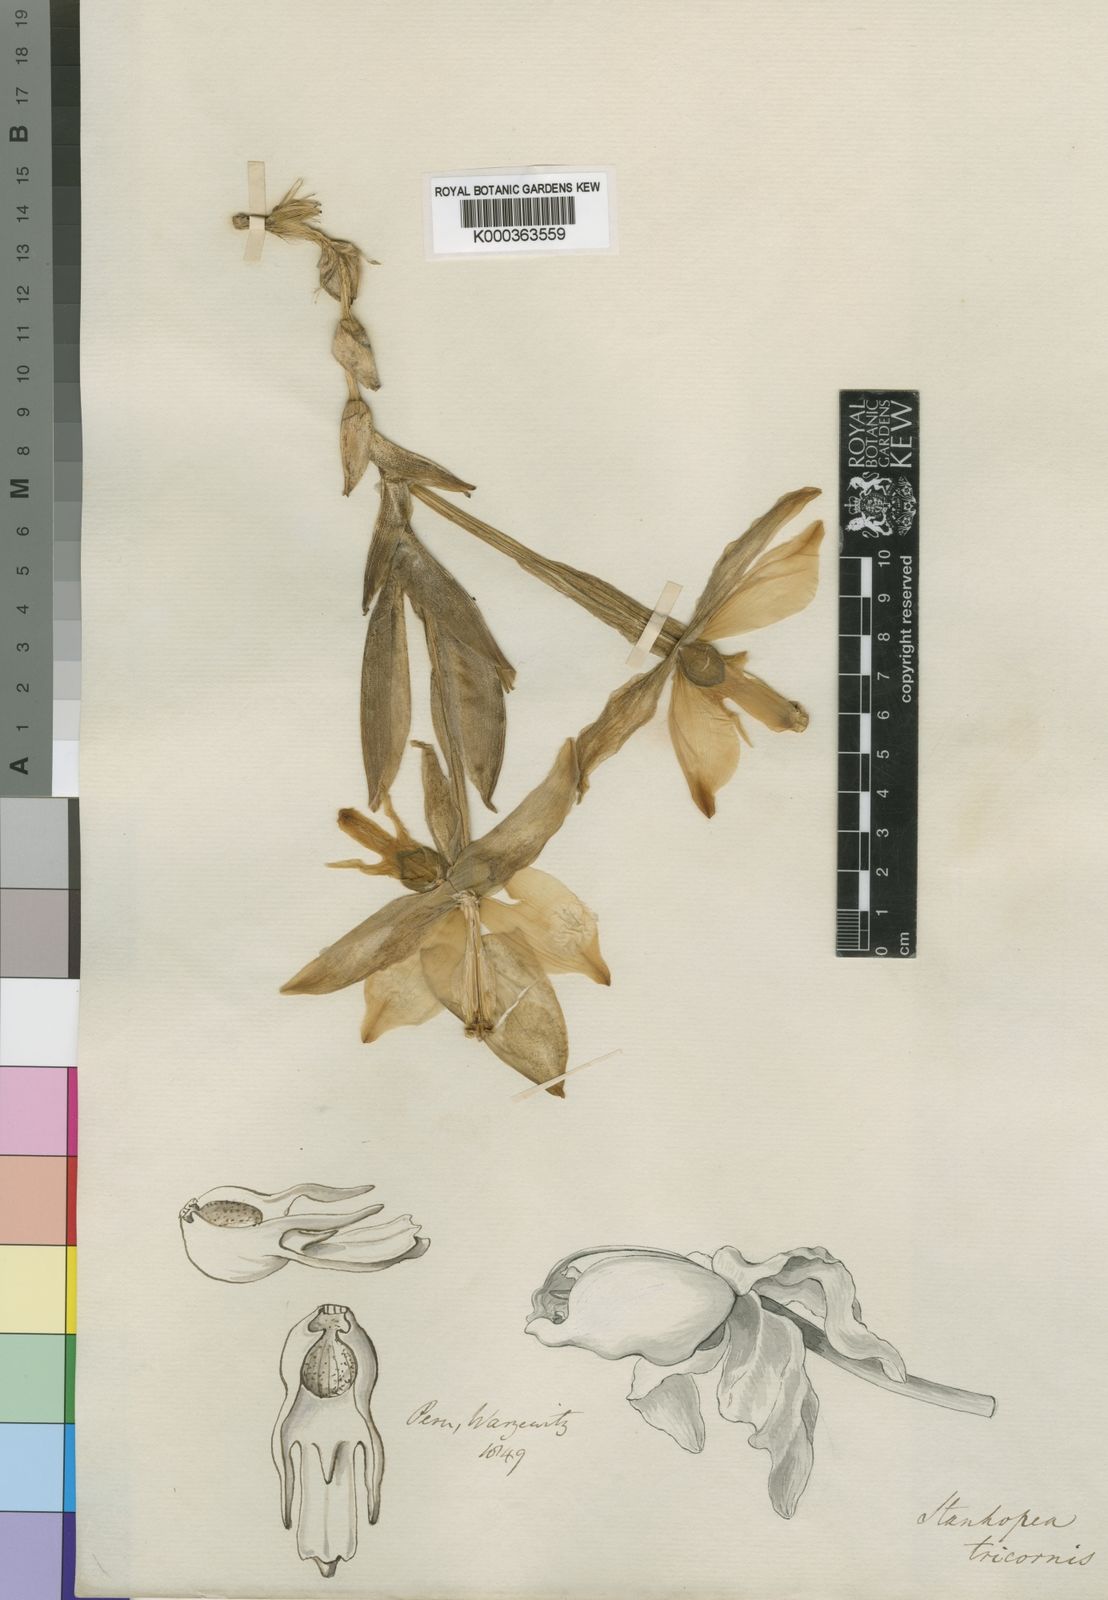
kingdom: Plantae
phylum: Tracheophyta
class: Liliopsida
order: Asparagales
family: Orchidaceae
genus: Stanhopea
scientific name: Stanhopea tricornis
